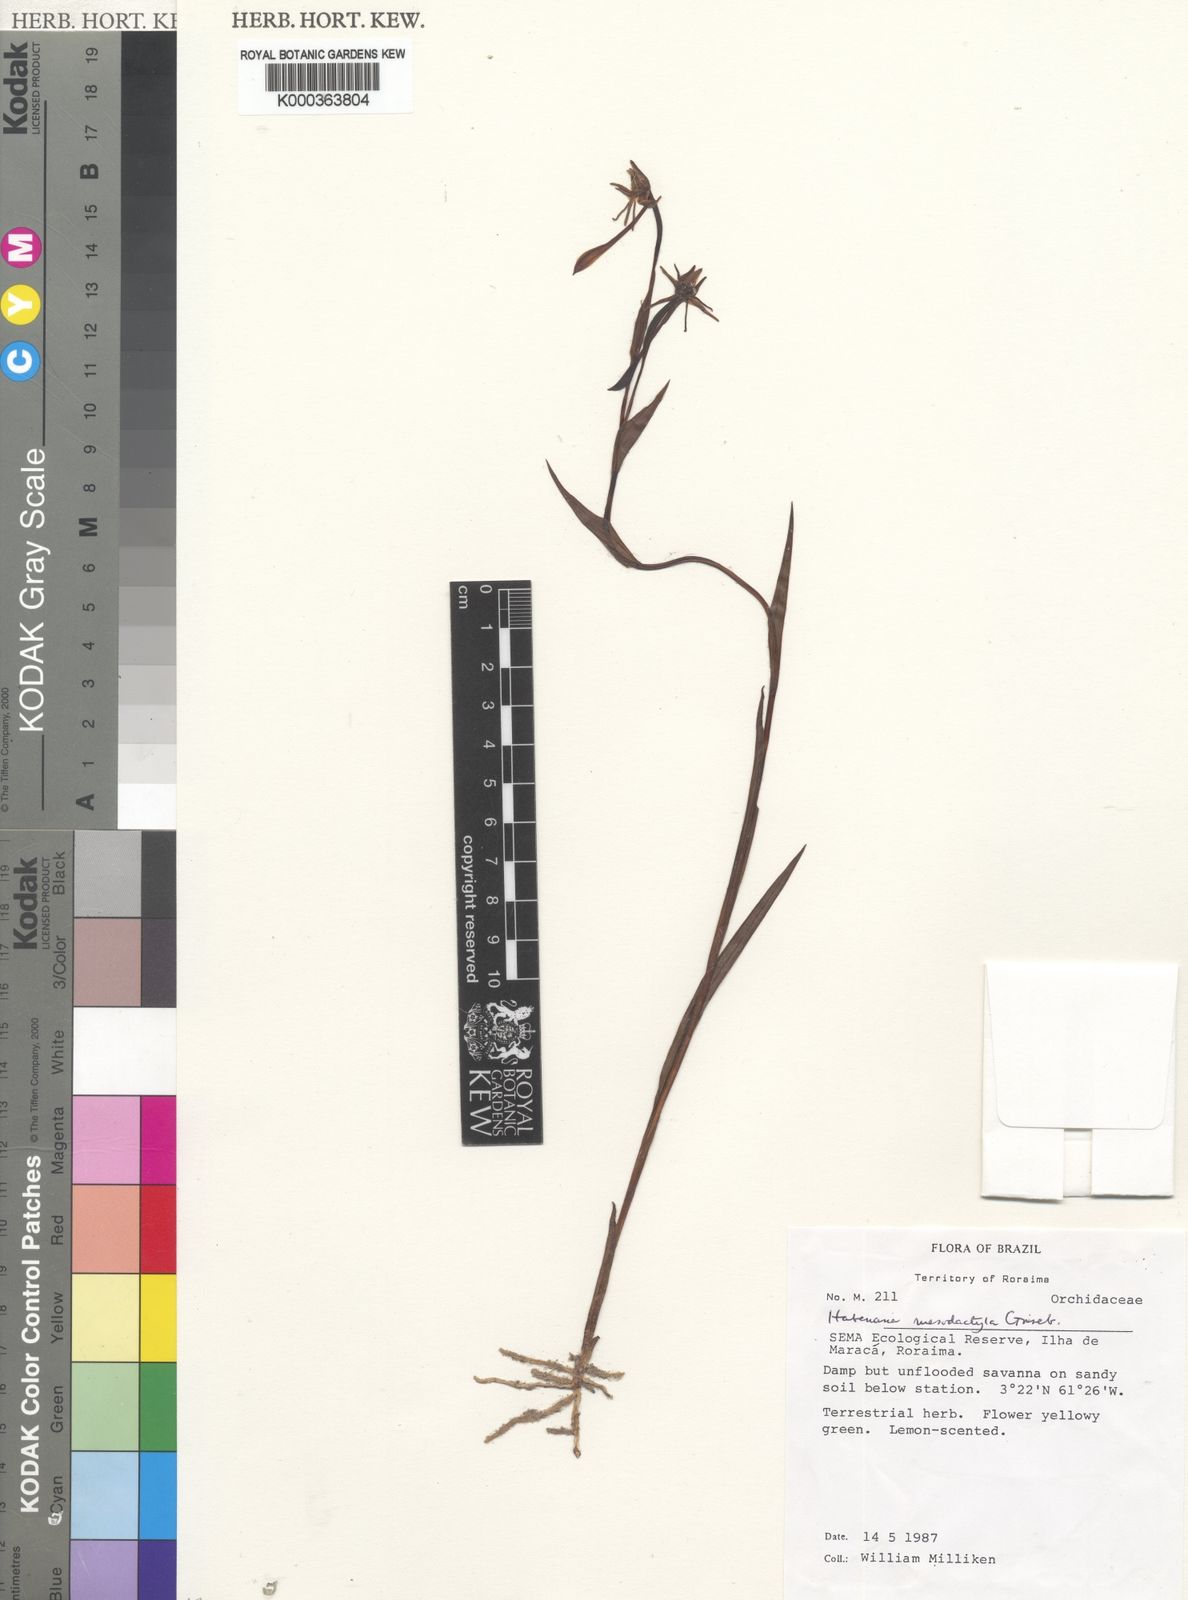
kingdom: Plantae
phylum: Tracheophyta
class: Liliopsida
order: Asparagales
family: Orchidaceae
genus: Habenaria
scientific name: Habenaria mesodactyla
